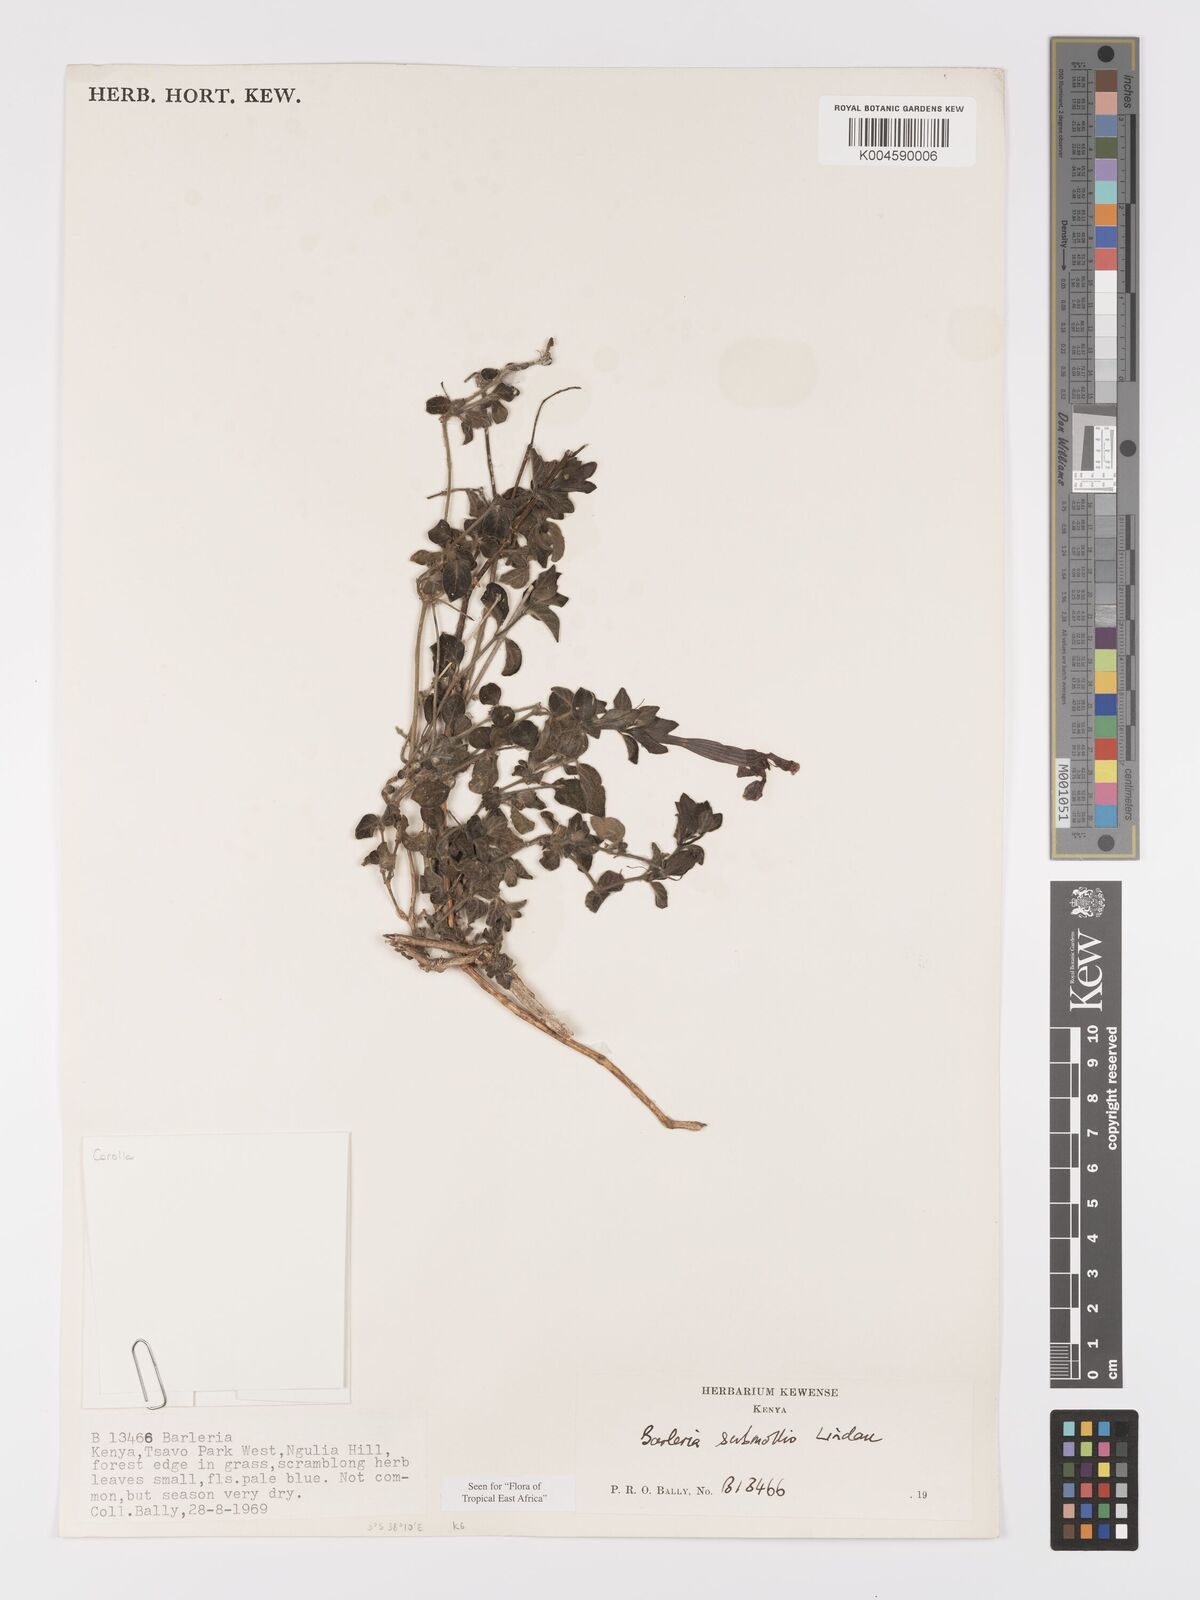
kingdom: Plantae
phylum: Tracheophyta
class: Magnoliopsida
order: Lamiales
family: Acanthaceae
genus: Barleria
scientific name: Barleria submollis
